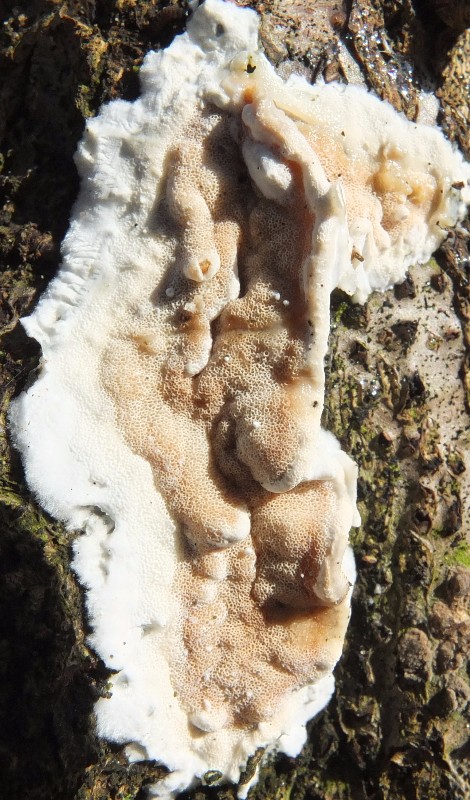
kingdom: Fungi
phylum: Basidiomycota
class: Agaricomycetes
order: Polyporales
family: Irpicaceae
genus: Vitreoporus
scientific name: Vitreoporus dichrous
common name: tofarvet foldporesvamp
